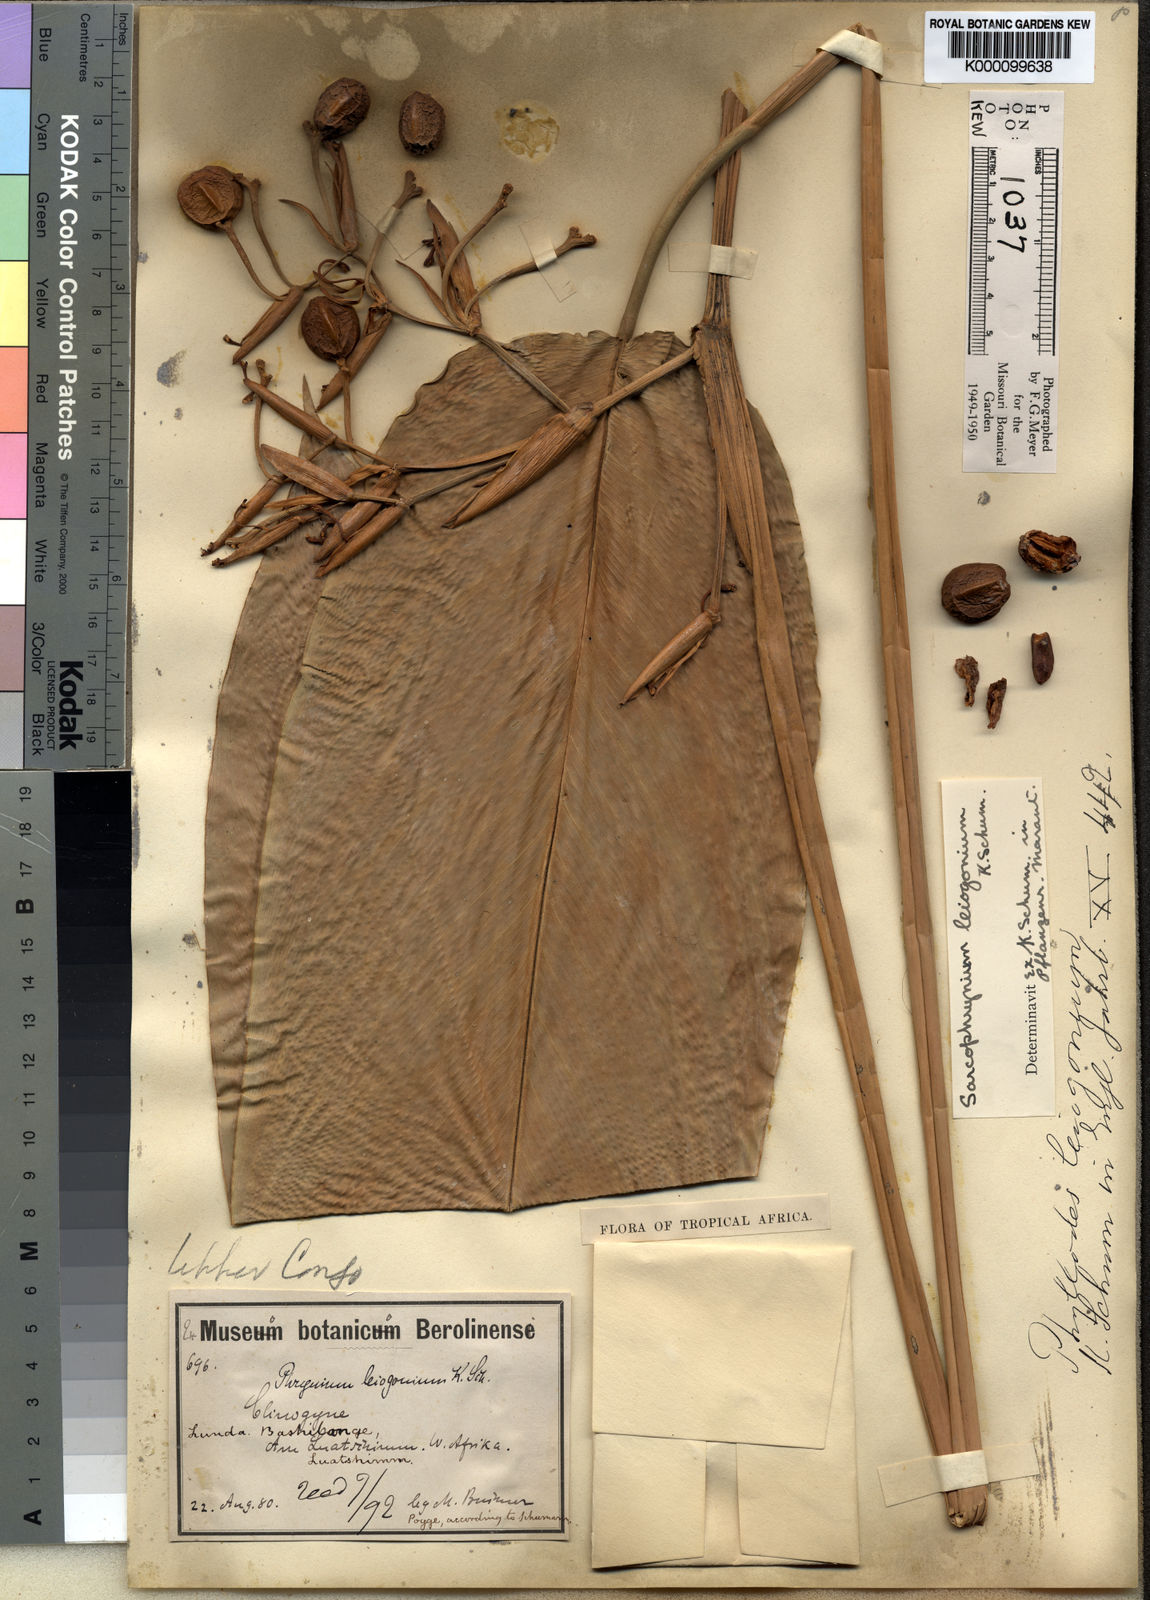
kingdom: Plantae
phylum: Tracheophyta
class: Liliopsida
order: Zingiberales
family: Marantaceae
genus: Sarcophrynium
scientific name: Sarcophrynium prionogonium
